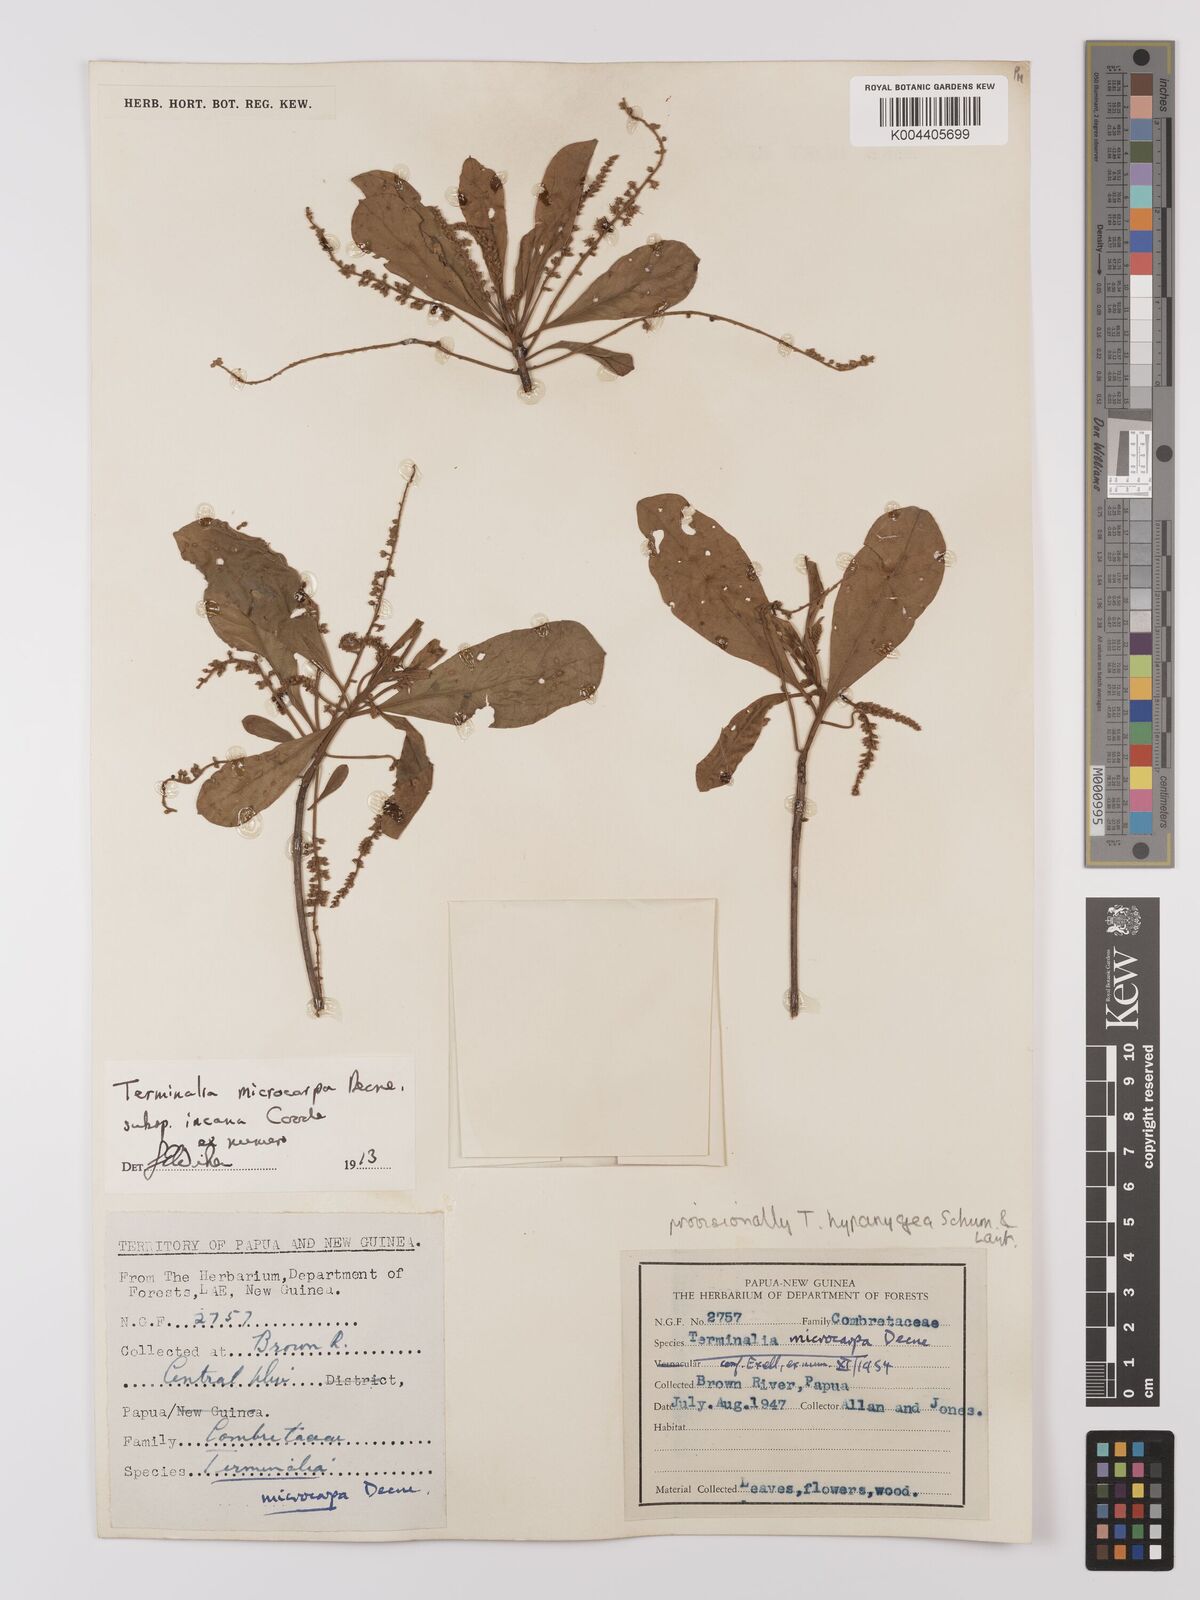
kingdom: Plantae
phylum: Tracheophyta
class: Magnoliopsida
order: Myrtales
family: Combretaceae
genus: Terminalia
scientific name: Terminalia microcarpa
